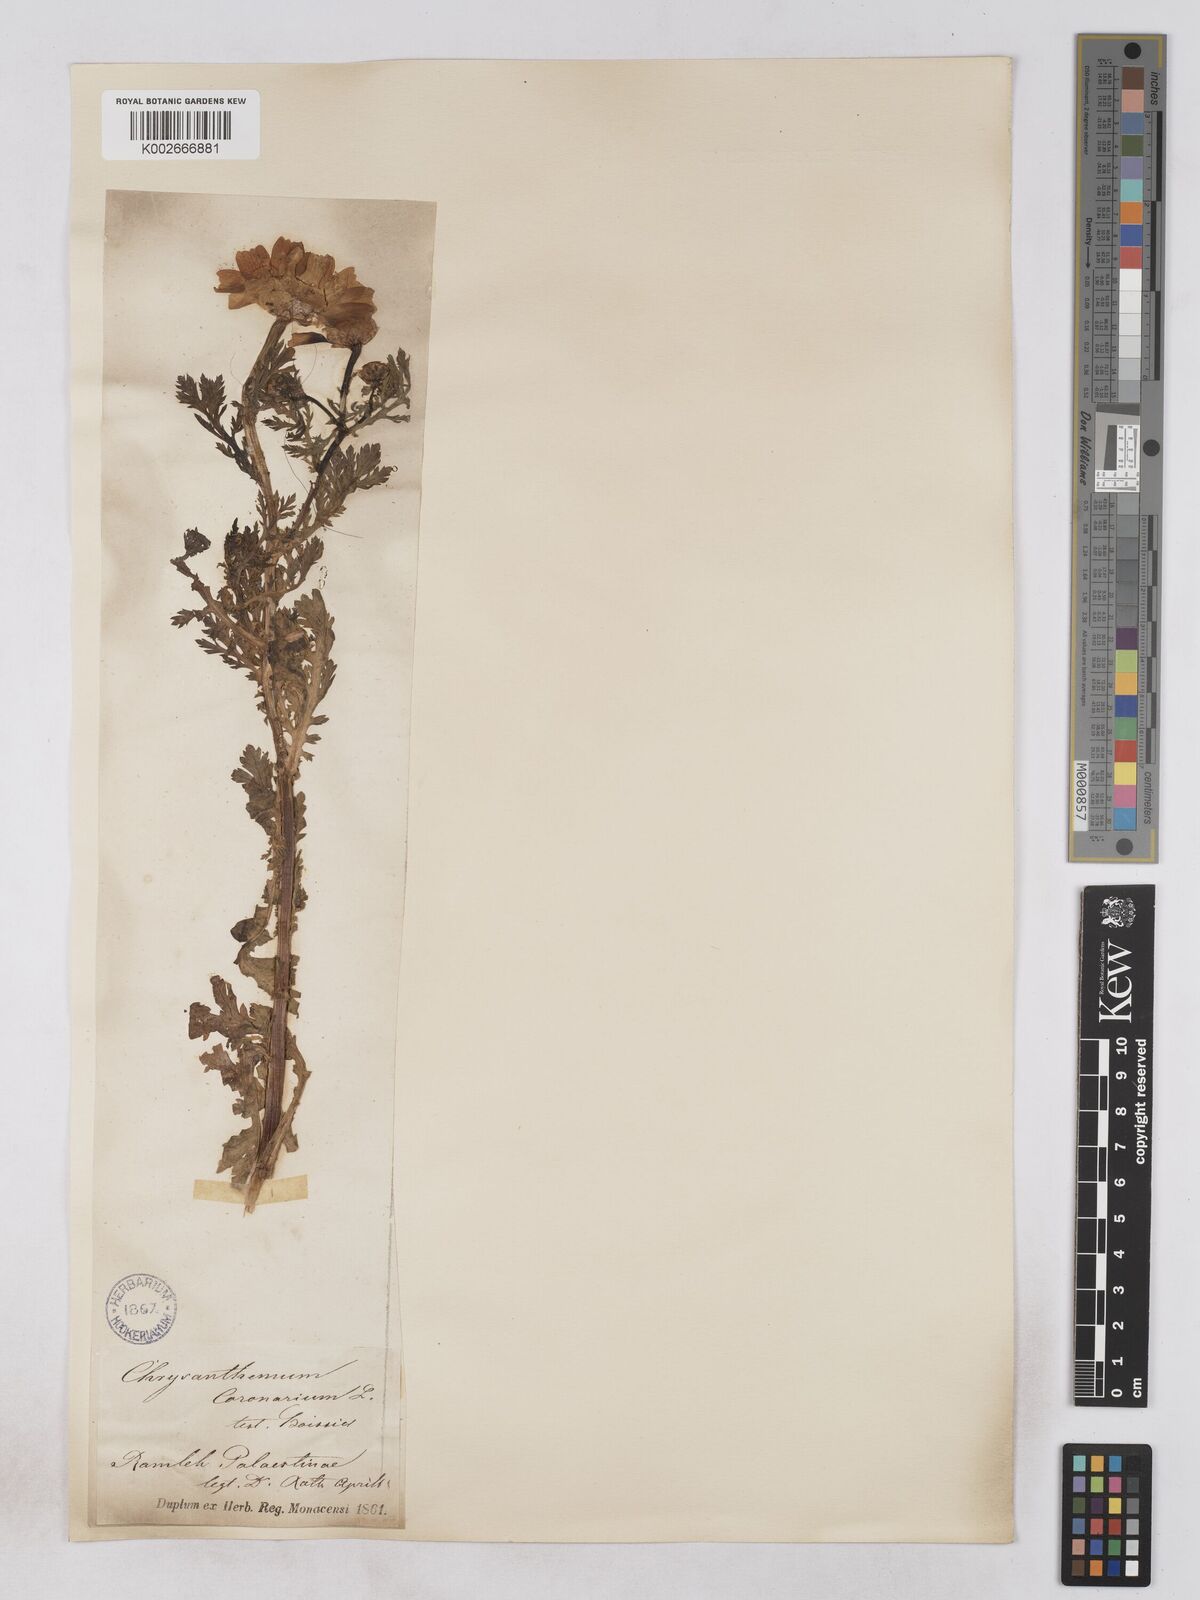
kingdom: Plantae
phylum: Tracheophyta
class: Magnoliopsida
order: Asterales
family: Asteraceae
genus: Glebionis
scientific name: Glebionis coronaria
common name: Crowndaisy
